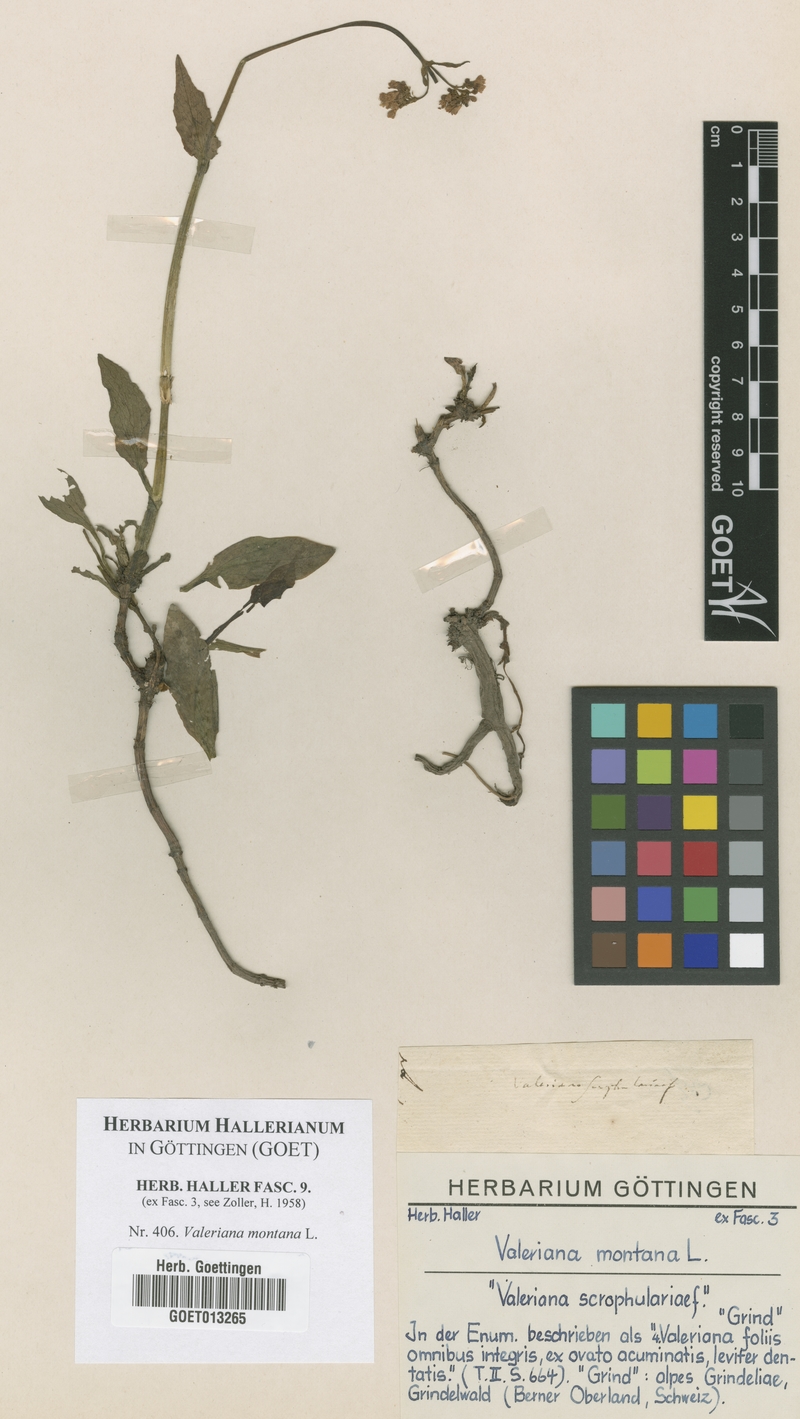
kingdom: Plantae
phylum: Tracheophyta
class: Magnoliopsida
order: Dipsacales
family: Caprifoliaceae
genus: Valeriana
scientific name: Valeriana montana
